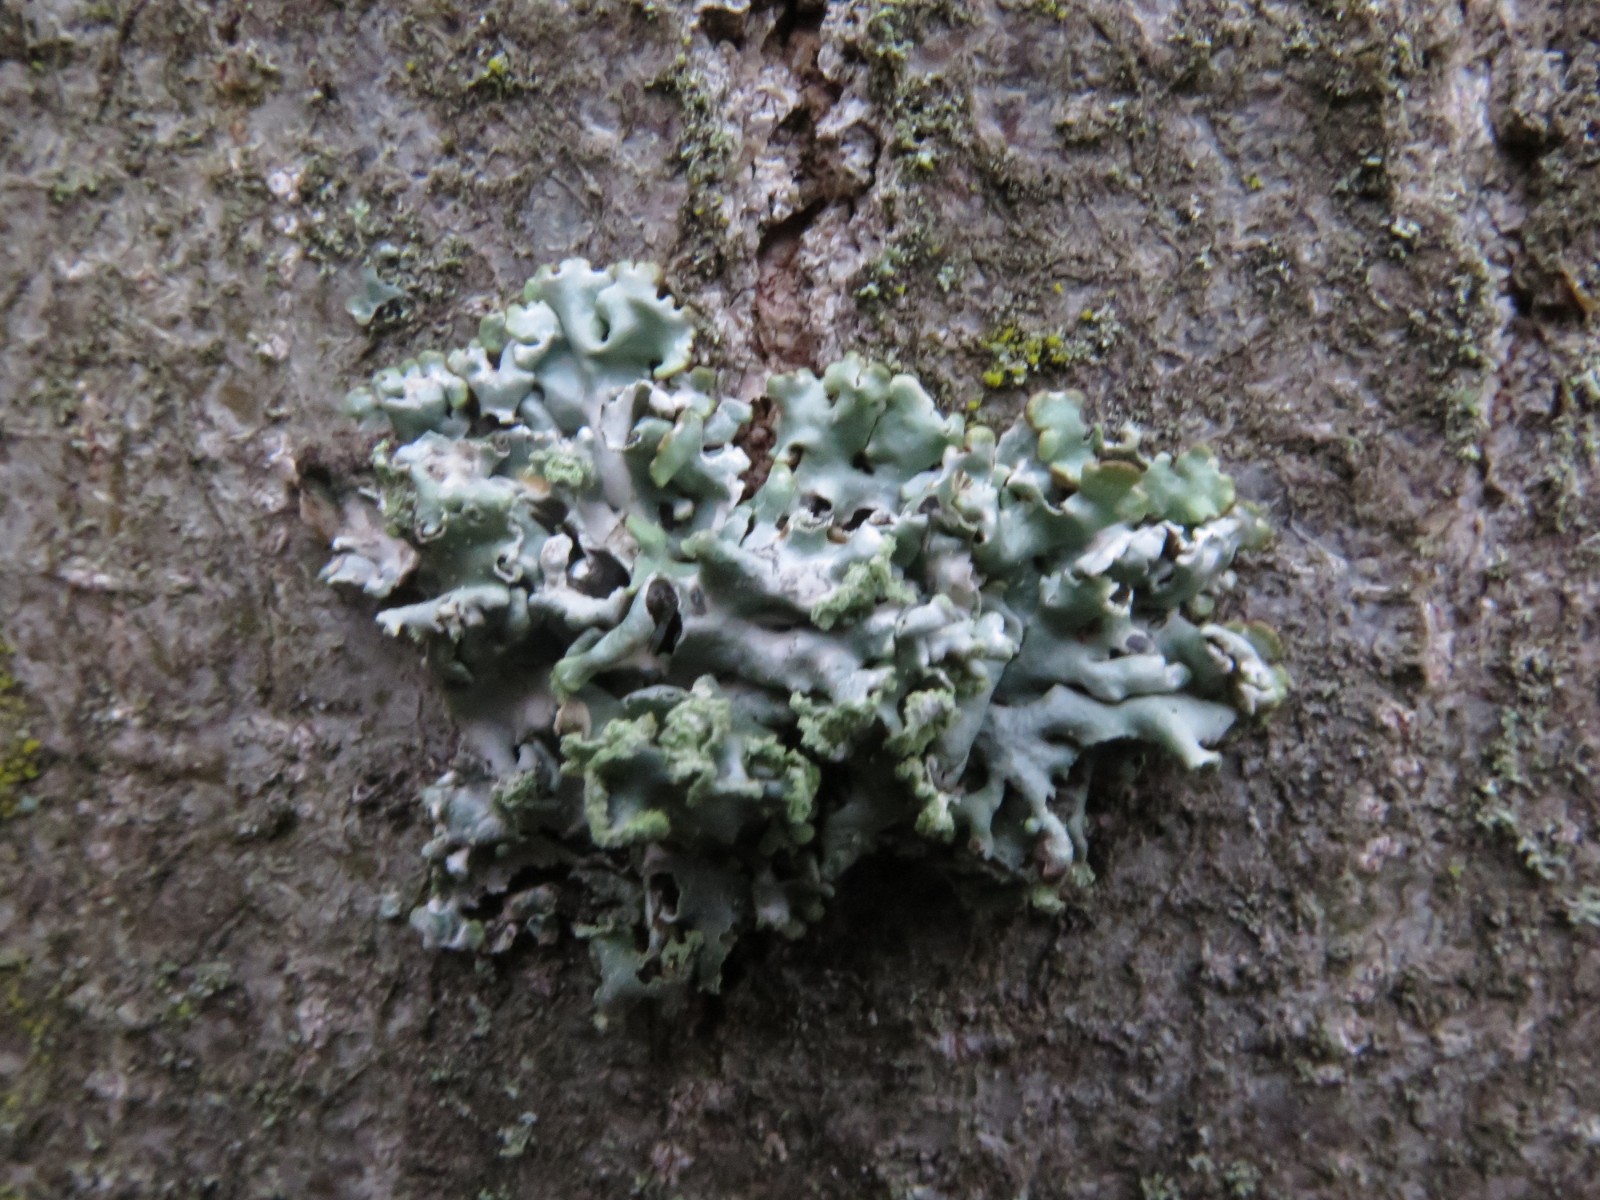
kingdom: Fungi
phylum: Ascomycota
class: Lecanoromycetes
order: Lecanorales
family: Parmeliaceae
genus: Hypogymnia
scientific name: Hypogymnia physodes
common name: almindelig kvistlav
